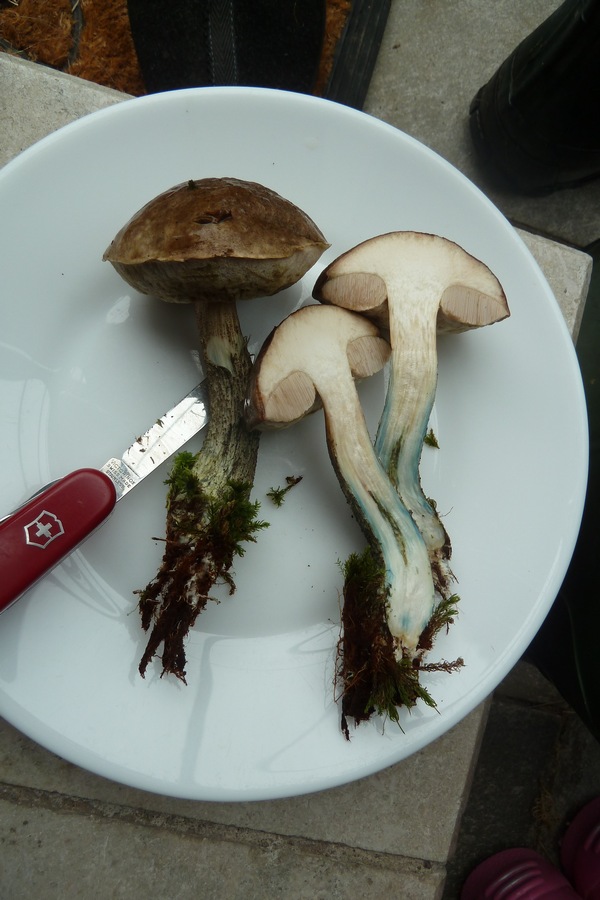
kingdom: Fungi
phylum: Basidiomycota
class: Agaricomycetes
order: Boletales
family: Boletaceae
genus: Leccinum
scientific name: Leccinum variicolor
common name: flammet skælrørhat
